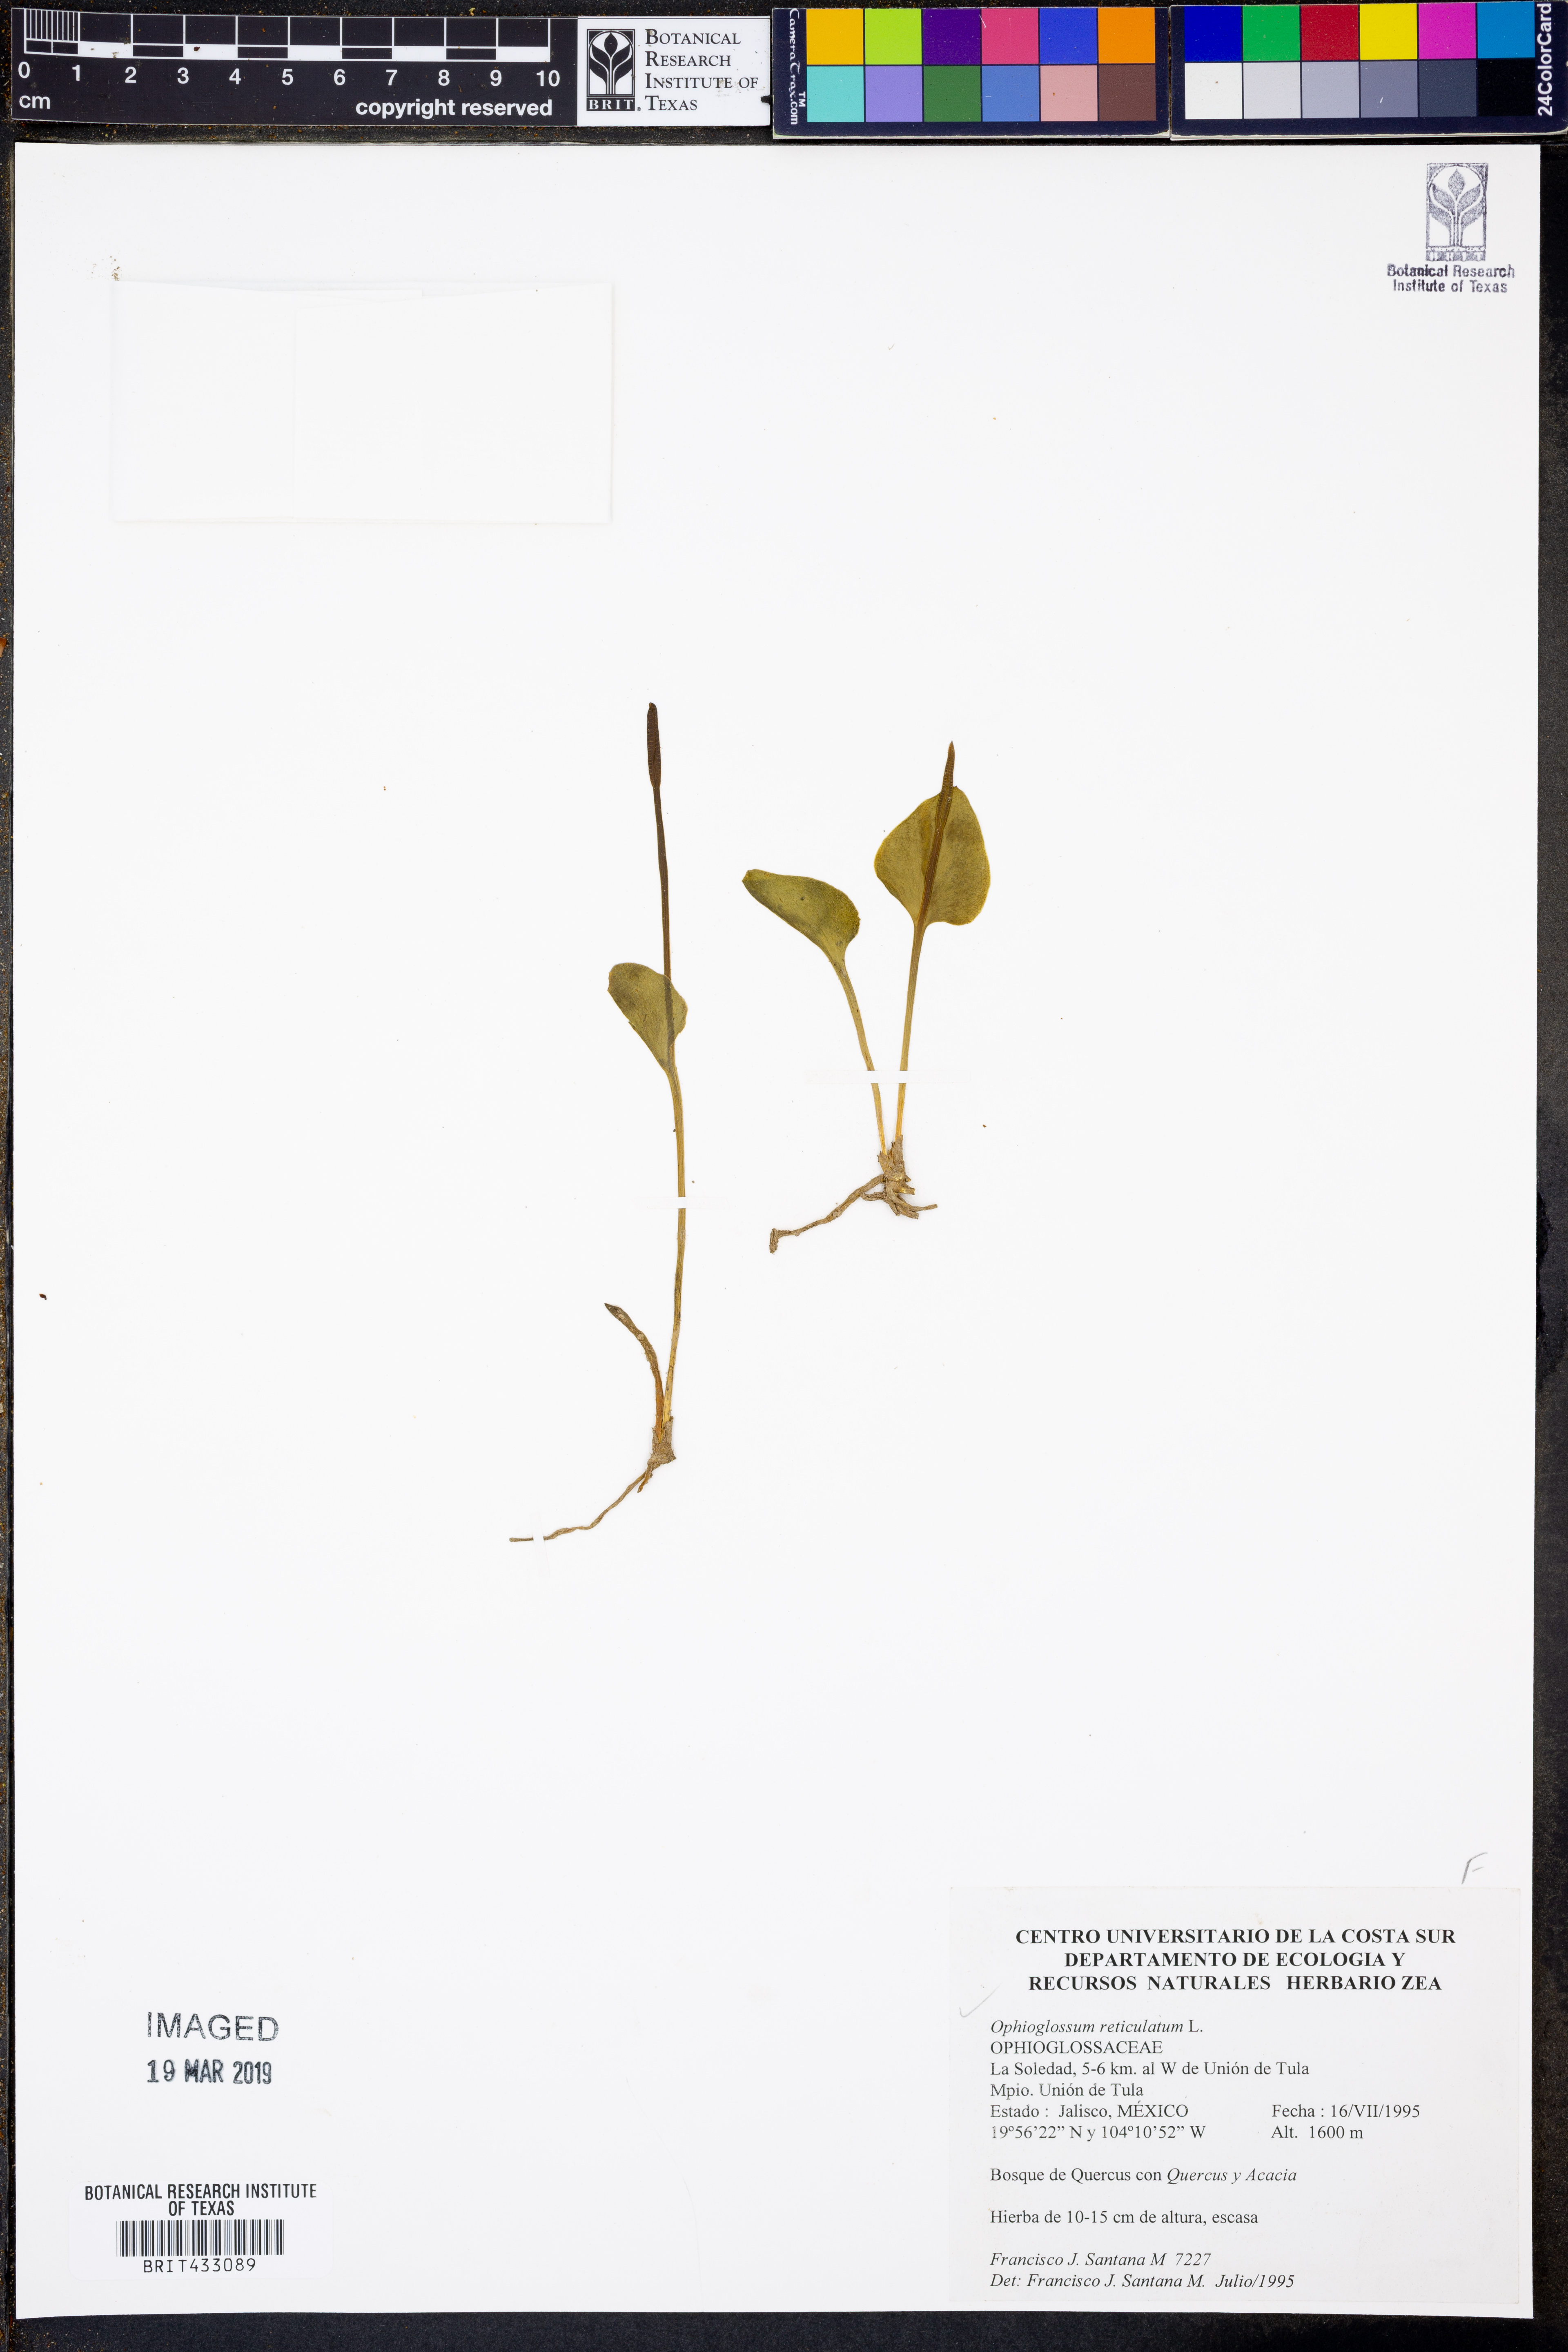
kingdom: Plantae
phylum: Tracheophyta
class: Polypodiopsida
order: Ophioglossales
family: Ophioglossaceae
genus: Ophioglossum
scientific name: Ophioglossum reticulatum
